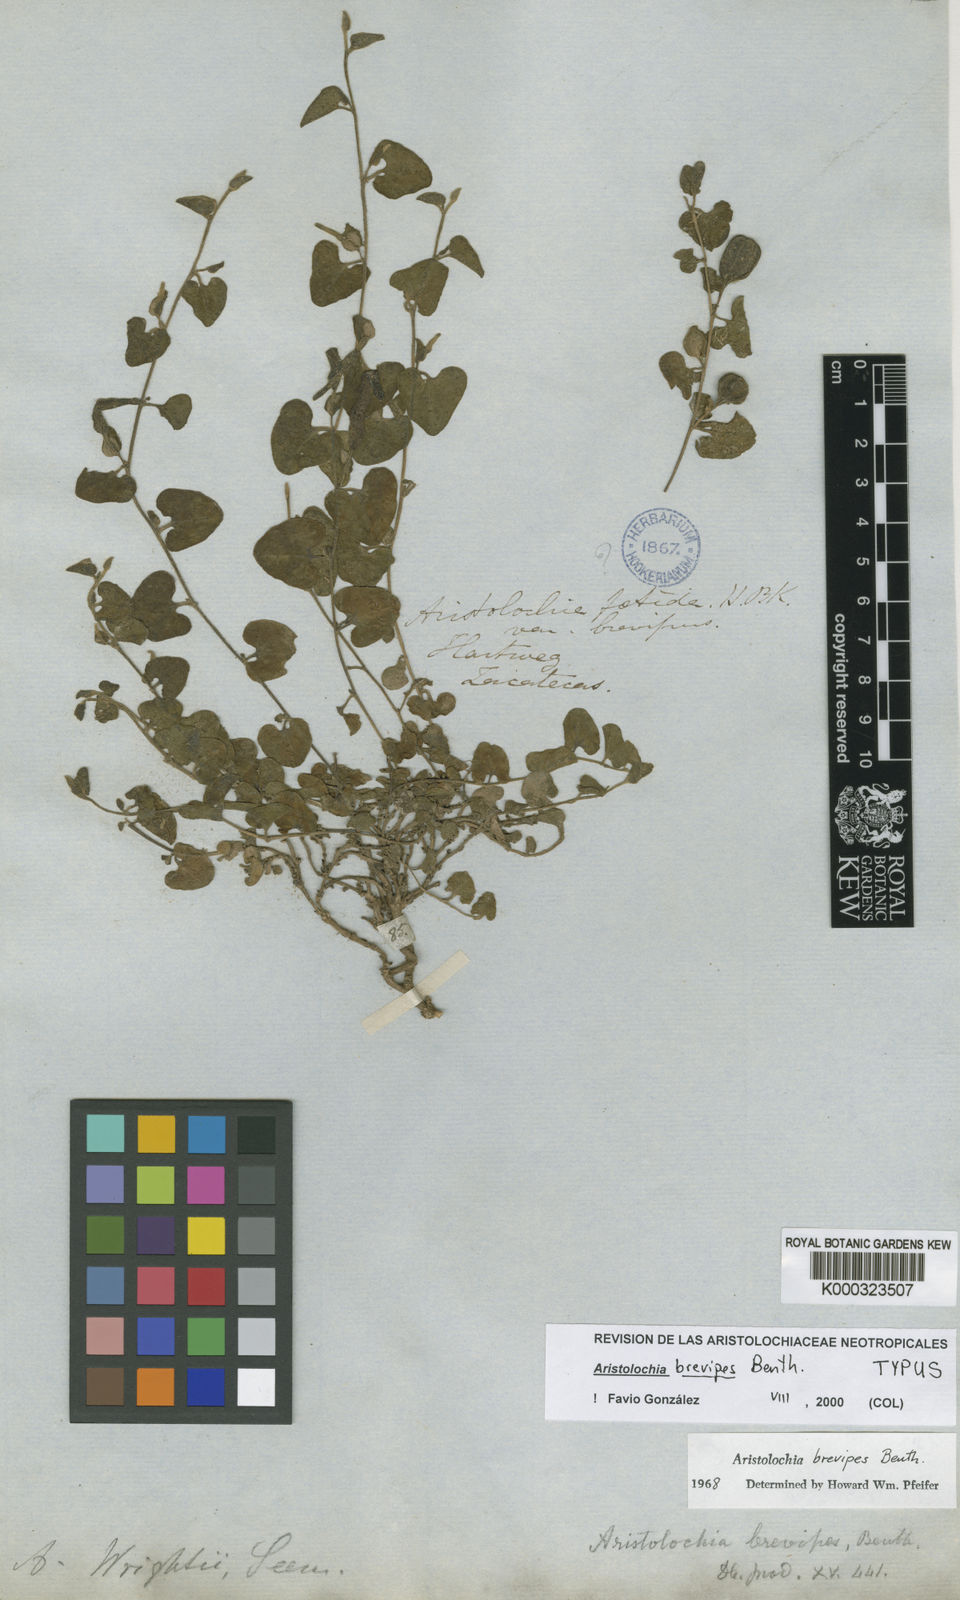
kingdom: Plantae
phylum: Tracheophyta
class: Magnoliopsida
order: Piperales
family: Aristolochiaceae
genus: Aristolochia
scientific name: Aristolochia brevipes
